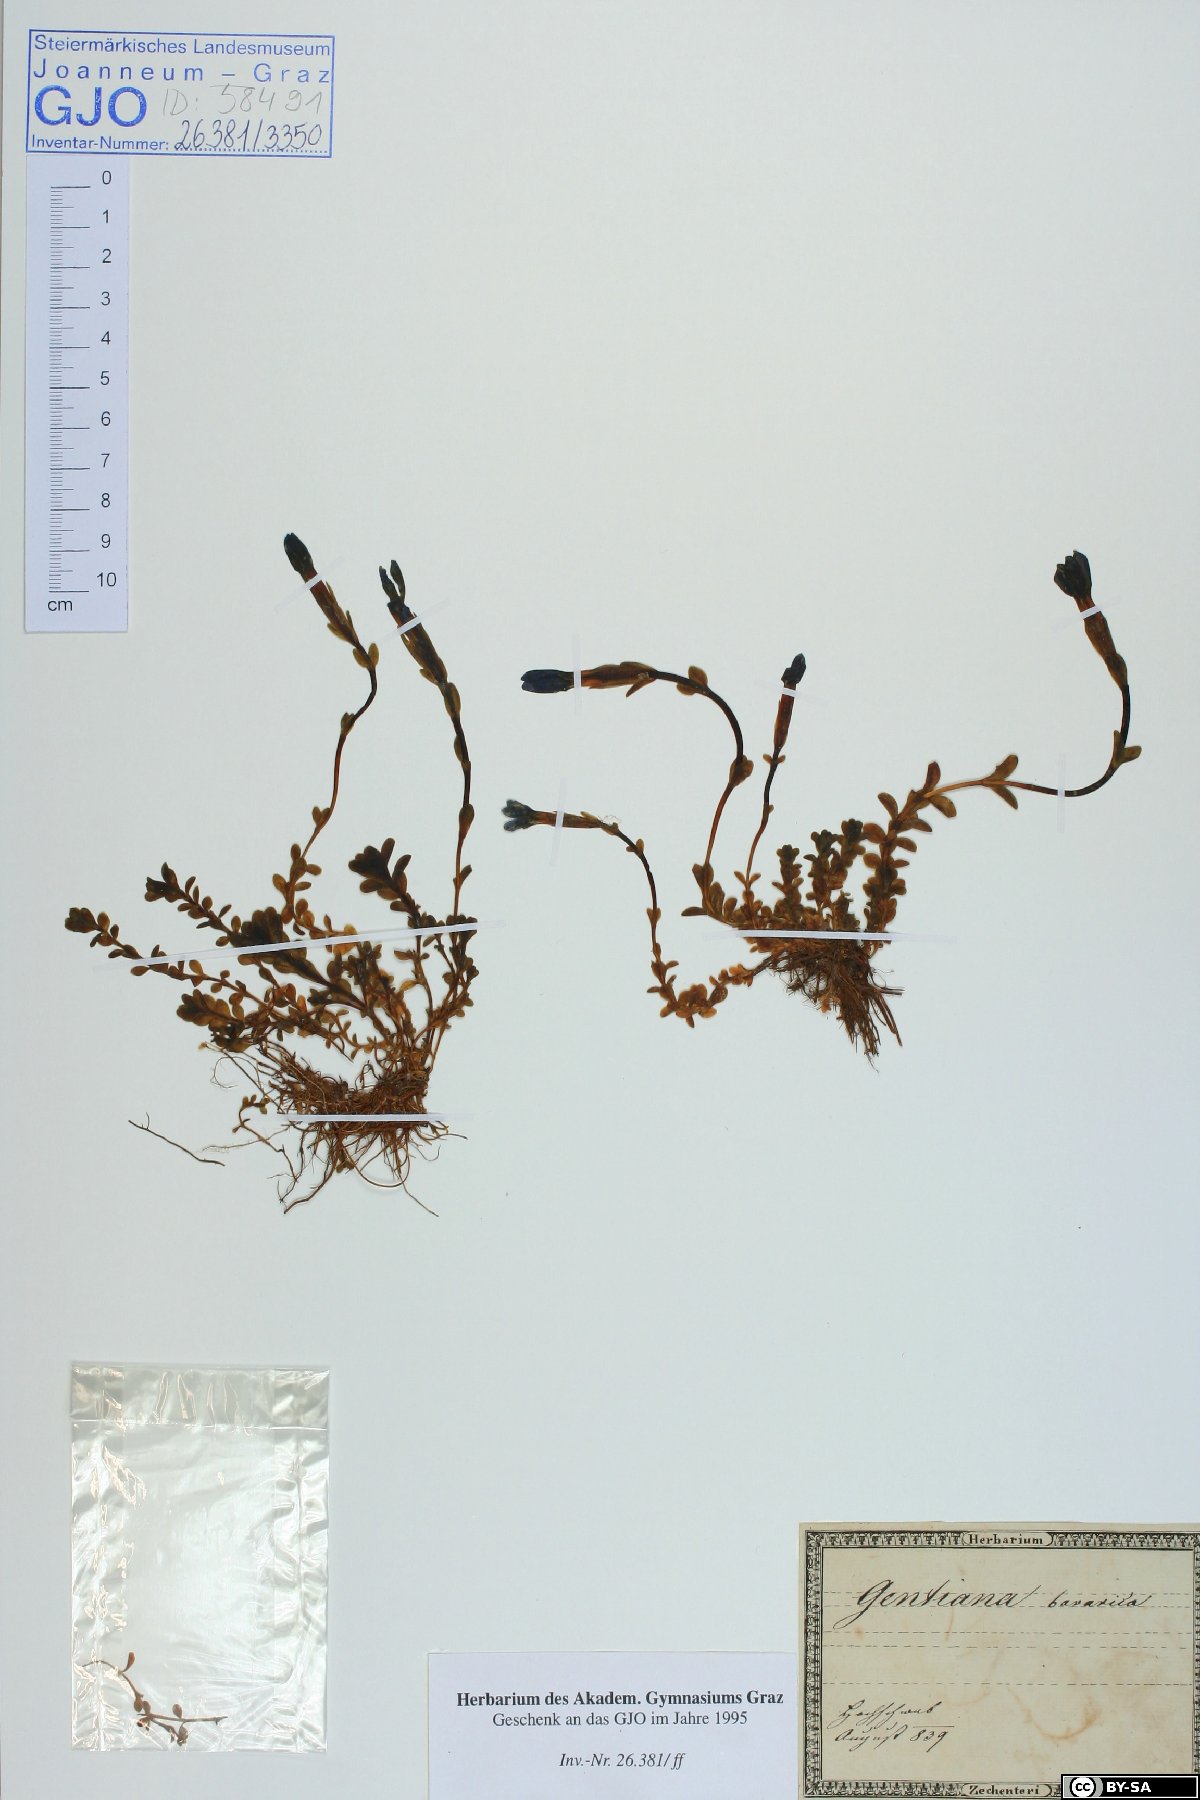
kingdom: Plantae
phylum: Tracheophyta
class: Magnoliopsida
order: Gentianales
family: Gentianaceae
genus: Gentiana
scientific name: Gentiana bavarica
